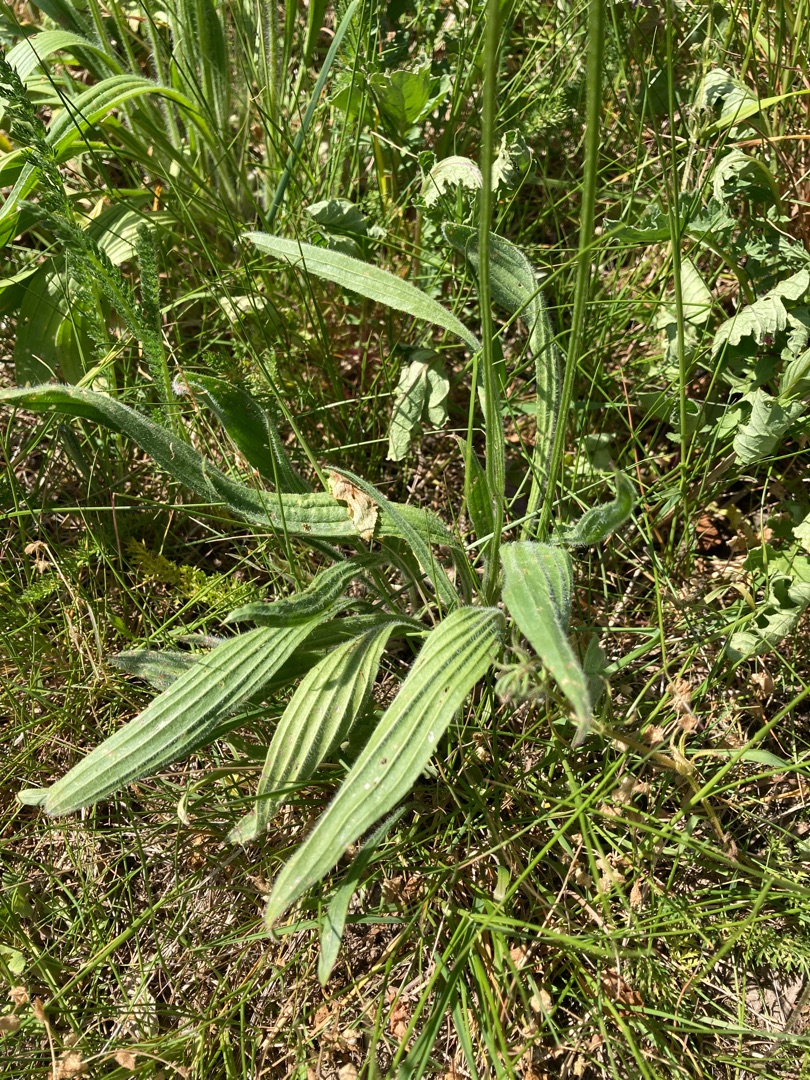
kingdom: Plantae
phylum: Tracheophyta
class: Magnoliopsida
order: Lamiales
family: Plantaginaceae
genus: Plantago
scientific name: Plantago lanceolata
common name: Lancet-vejbred
